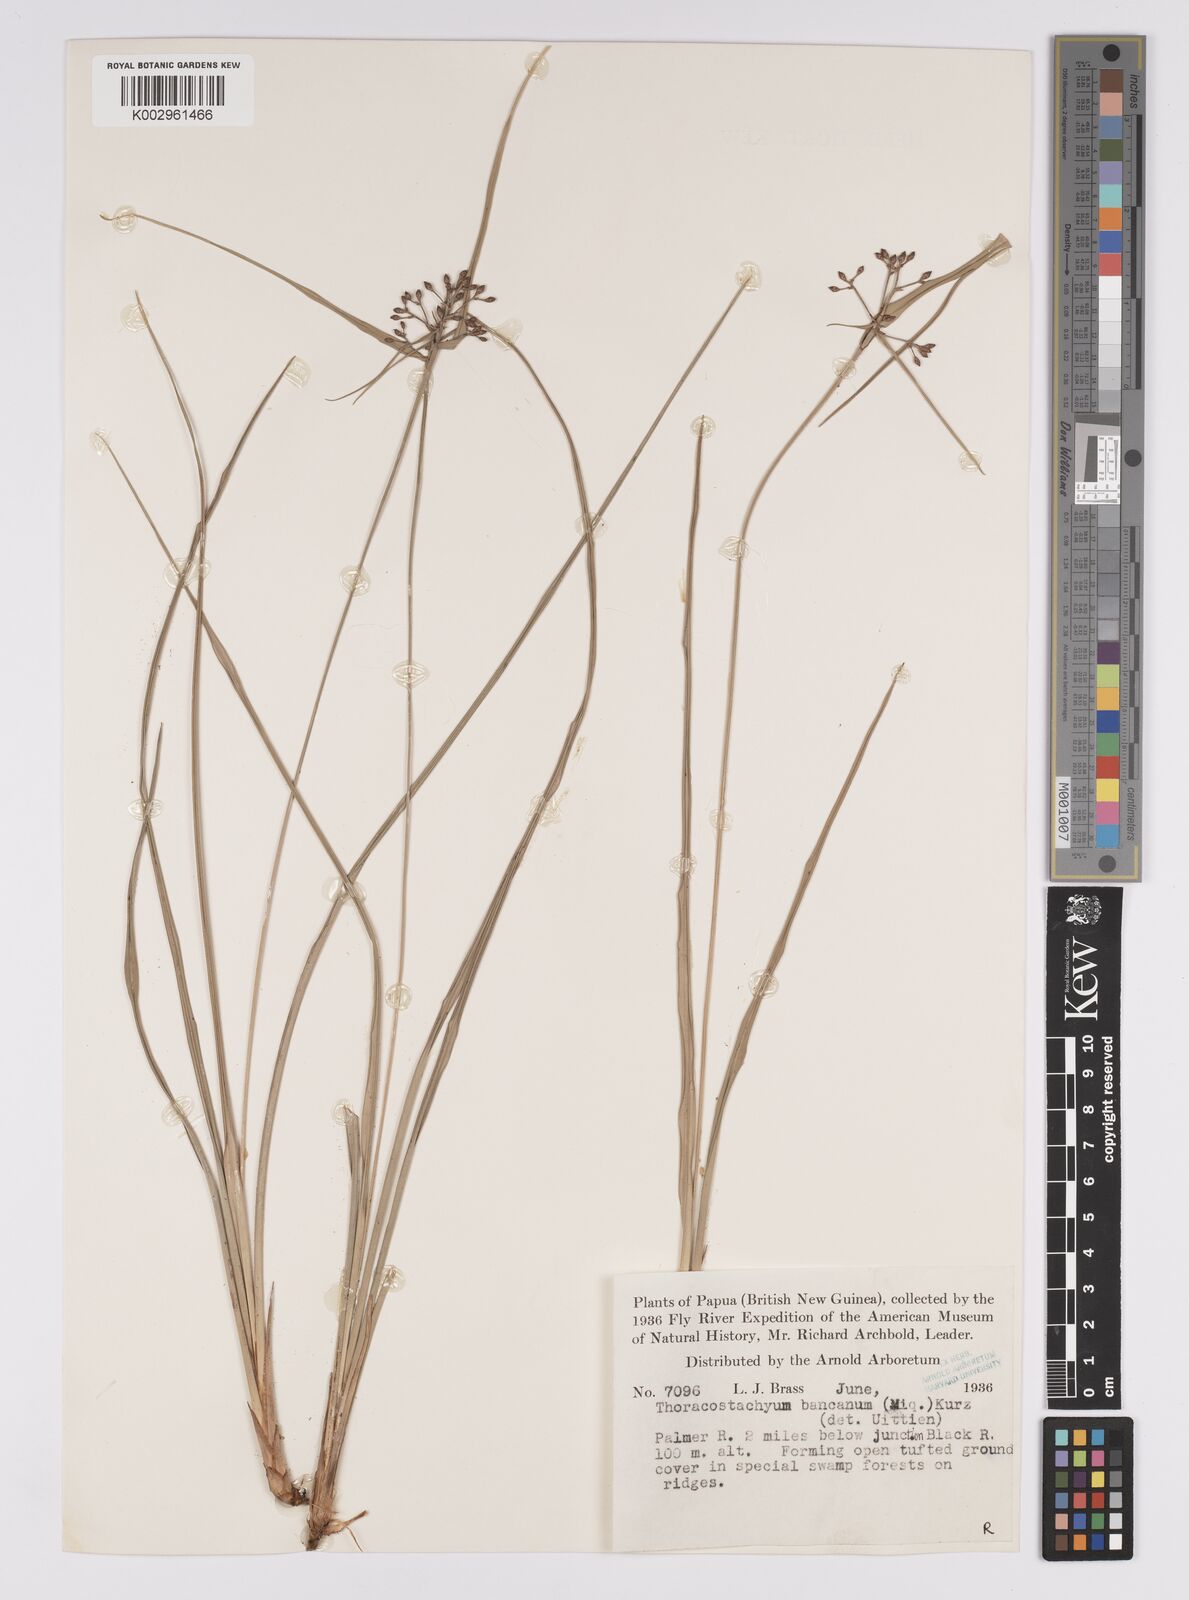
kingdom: Plantae
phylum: Tracheophyta
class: Liliopsida
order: Poales
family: Cyperaceae
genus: Mapania
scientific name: Mapania
